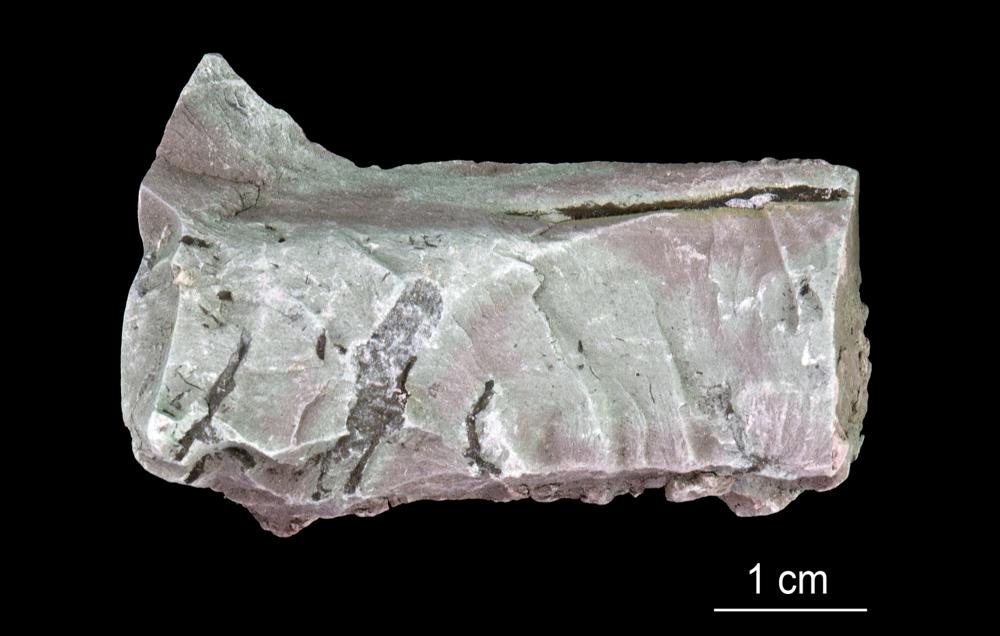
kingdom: Chromista
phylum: Foraminifera
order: Astrorhizida
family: Hyperamminidae
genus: Platysolenites
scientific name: Platysolenites
